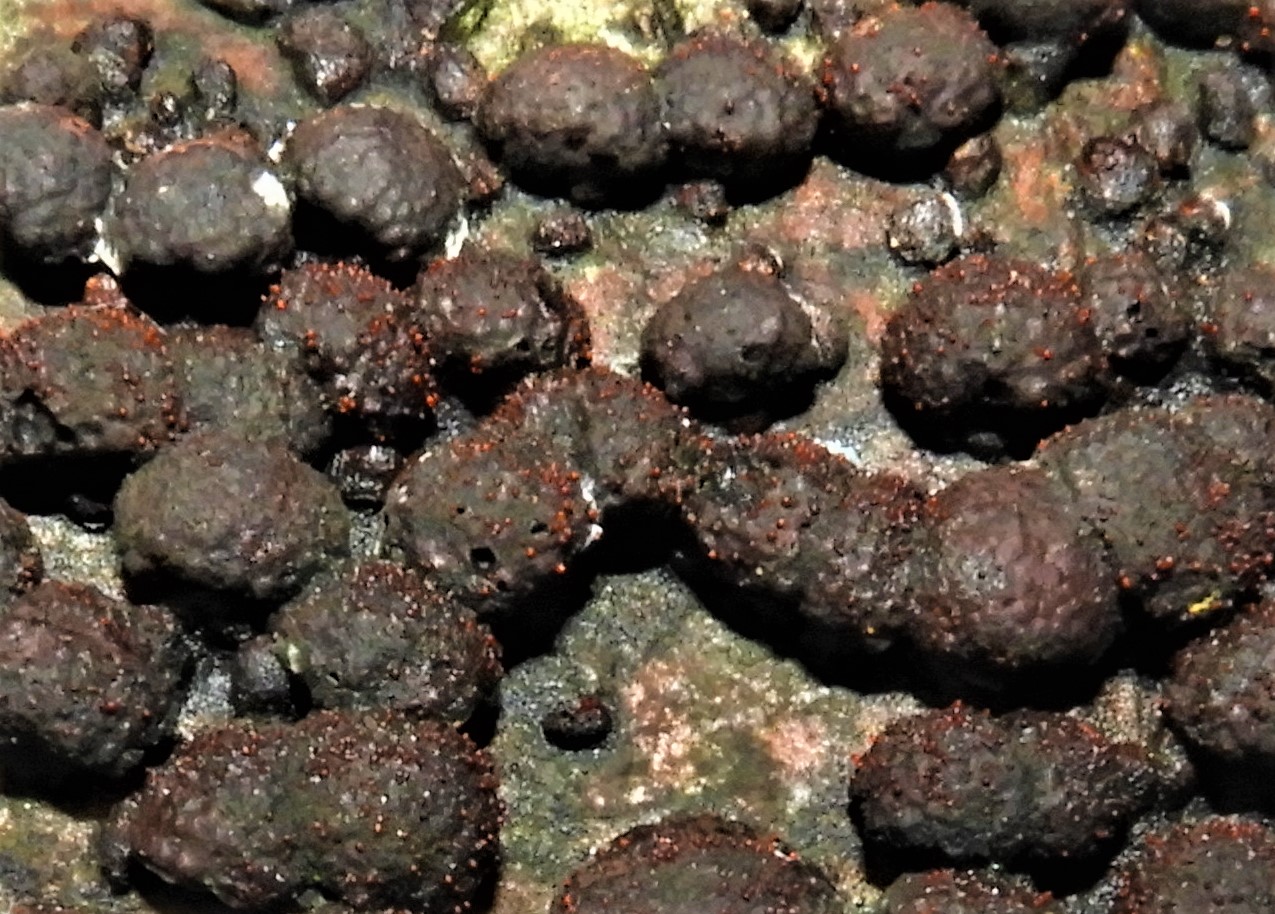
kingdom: Fungi
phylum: Ascomycota
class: Sordariomycetes
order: Hypocreales
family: Nectriaceae
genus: Cosmospora
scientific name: Cosmospora arxii
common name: kuljordbær-cinnobersvamp
